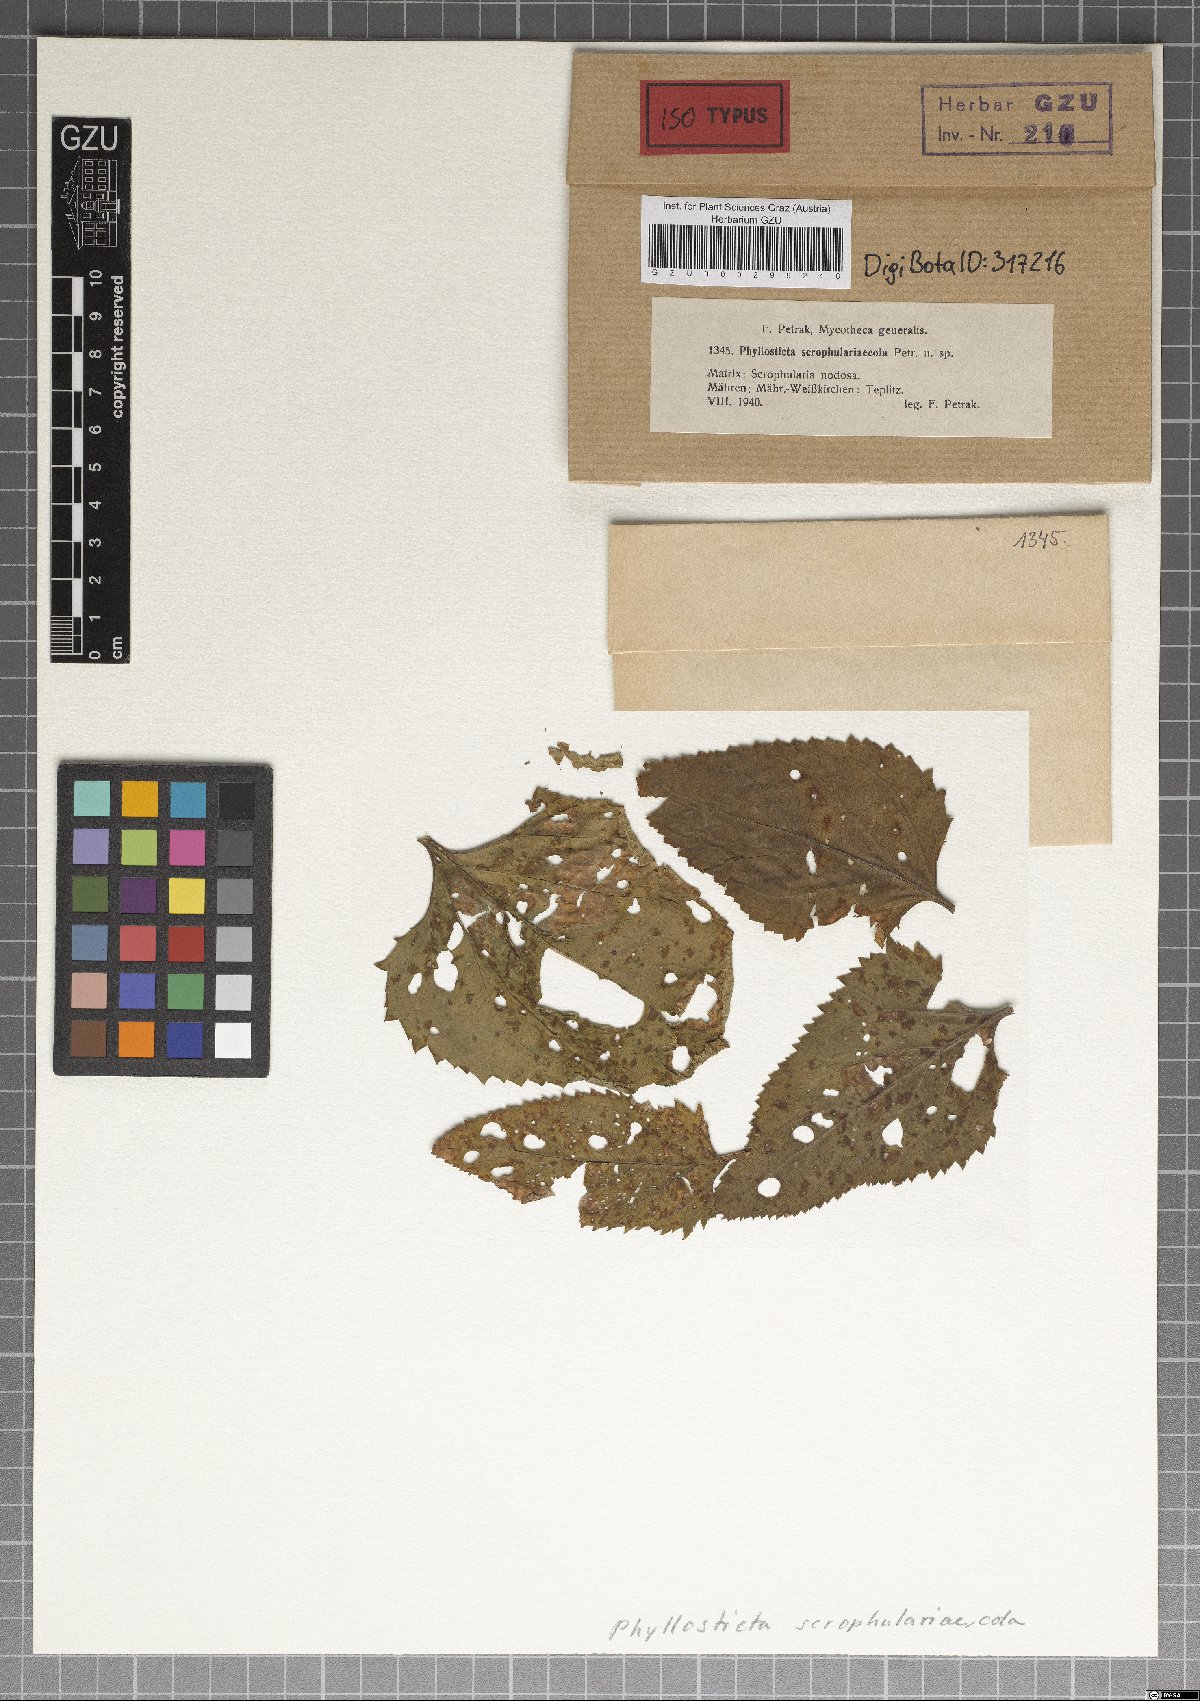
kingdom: Fungi
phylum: Ascomycota
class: Dothideomycetes
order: Botryosphaeriales
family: Phyllostictaceae
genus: Phyllosticta
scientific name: Phyllosticta scrophulariicola
